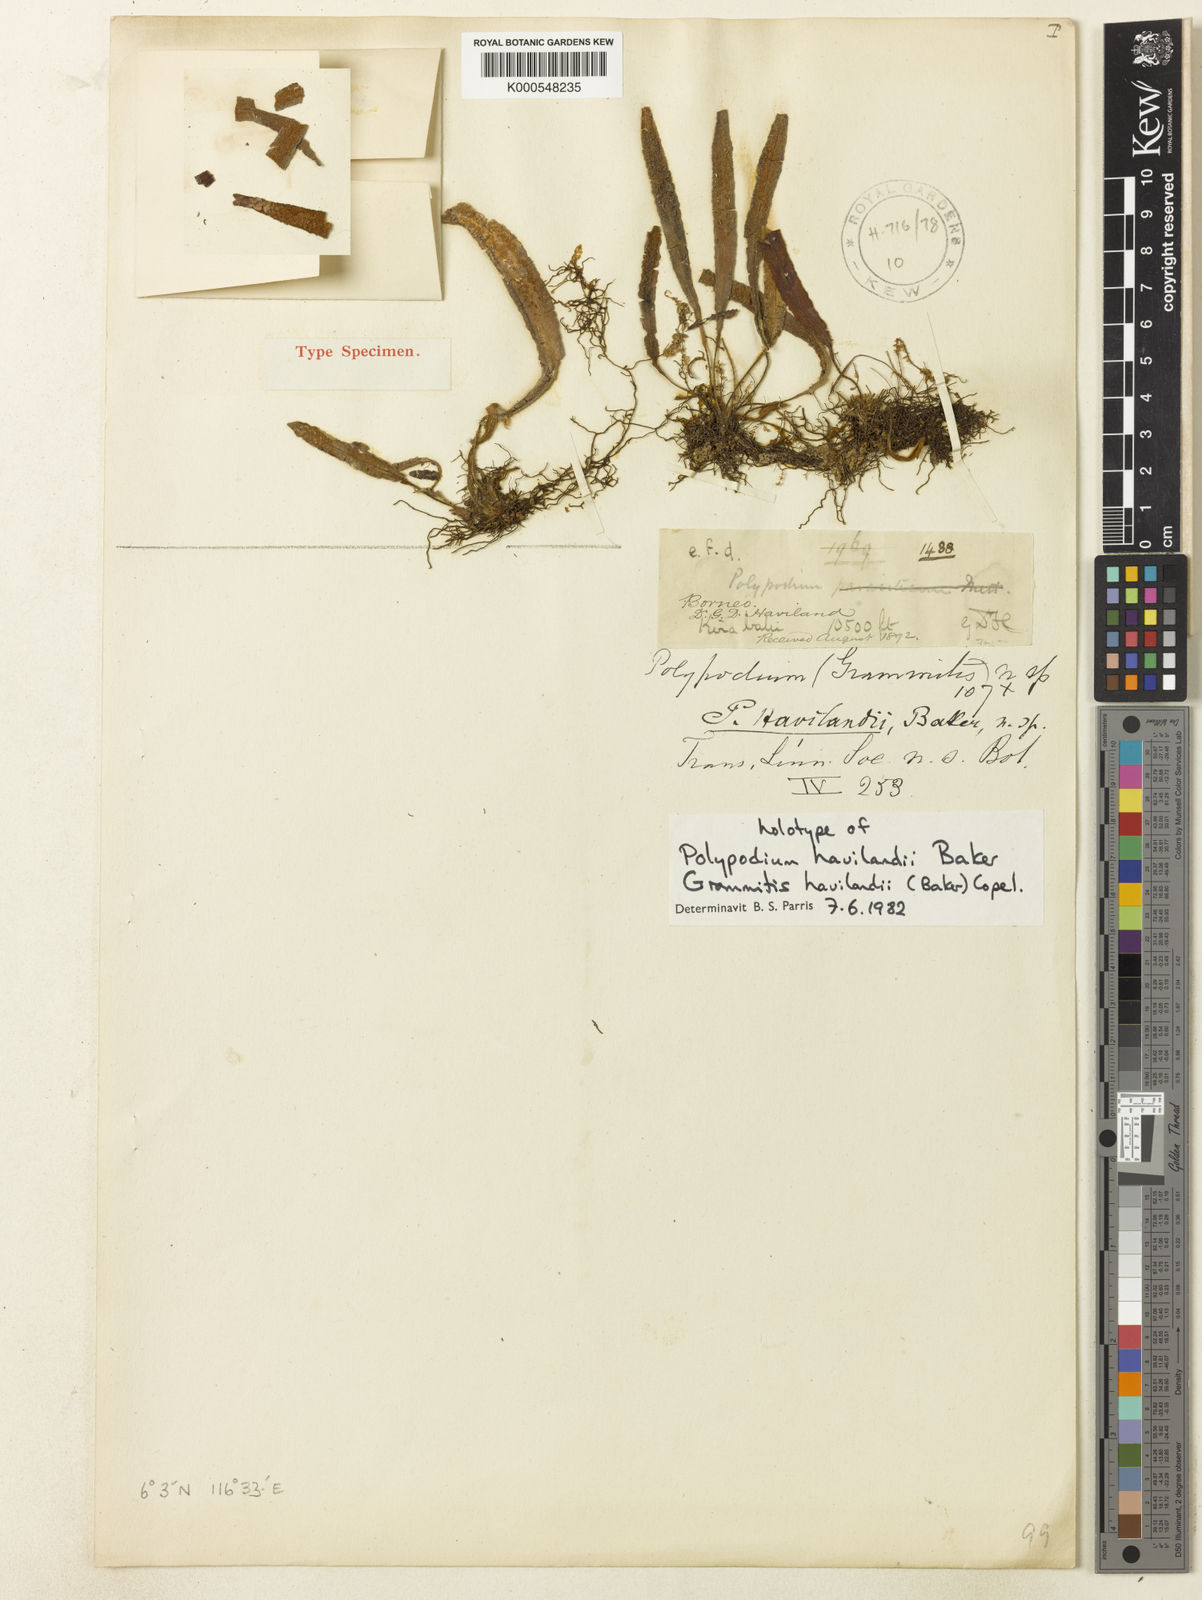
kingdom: Plantae
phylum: Tracheophyta
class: Polypodiopsida
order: Polypodiales
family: Polypodiaceae
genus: Oreogrammitis
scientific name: Oreogrammitis havilandii
